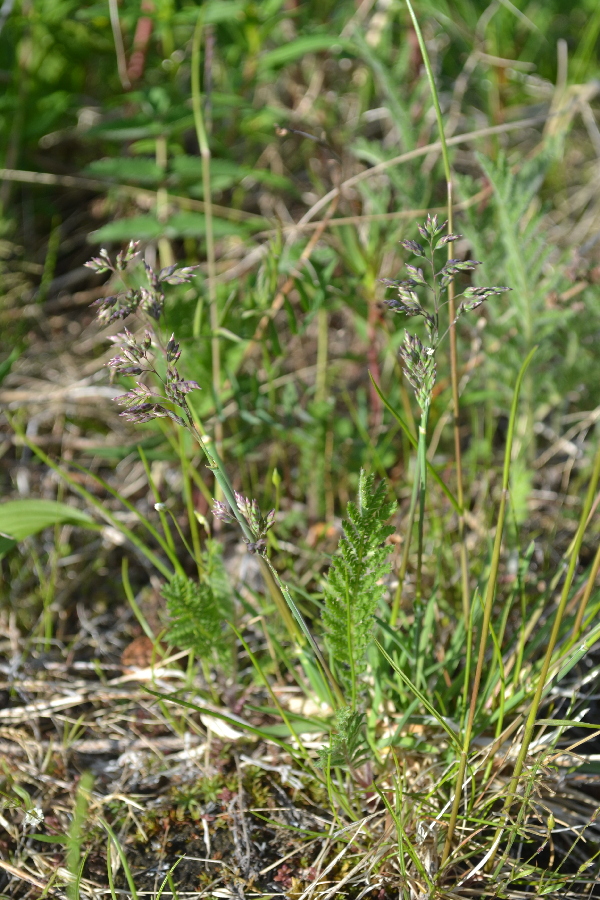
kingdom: Plantae
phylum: Tracheophyta
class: Liliopsida
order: Poales
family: Poaceae
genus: Poa
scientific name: Poa arctica
